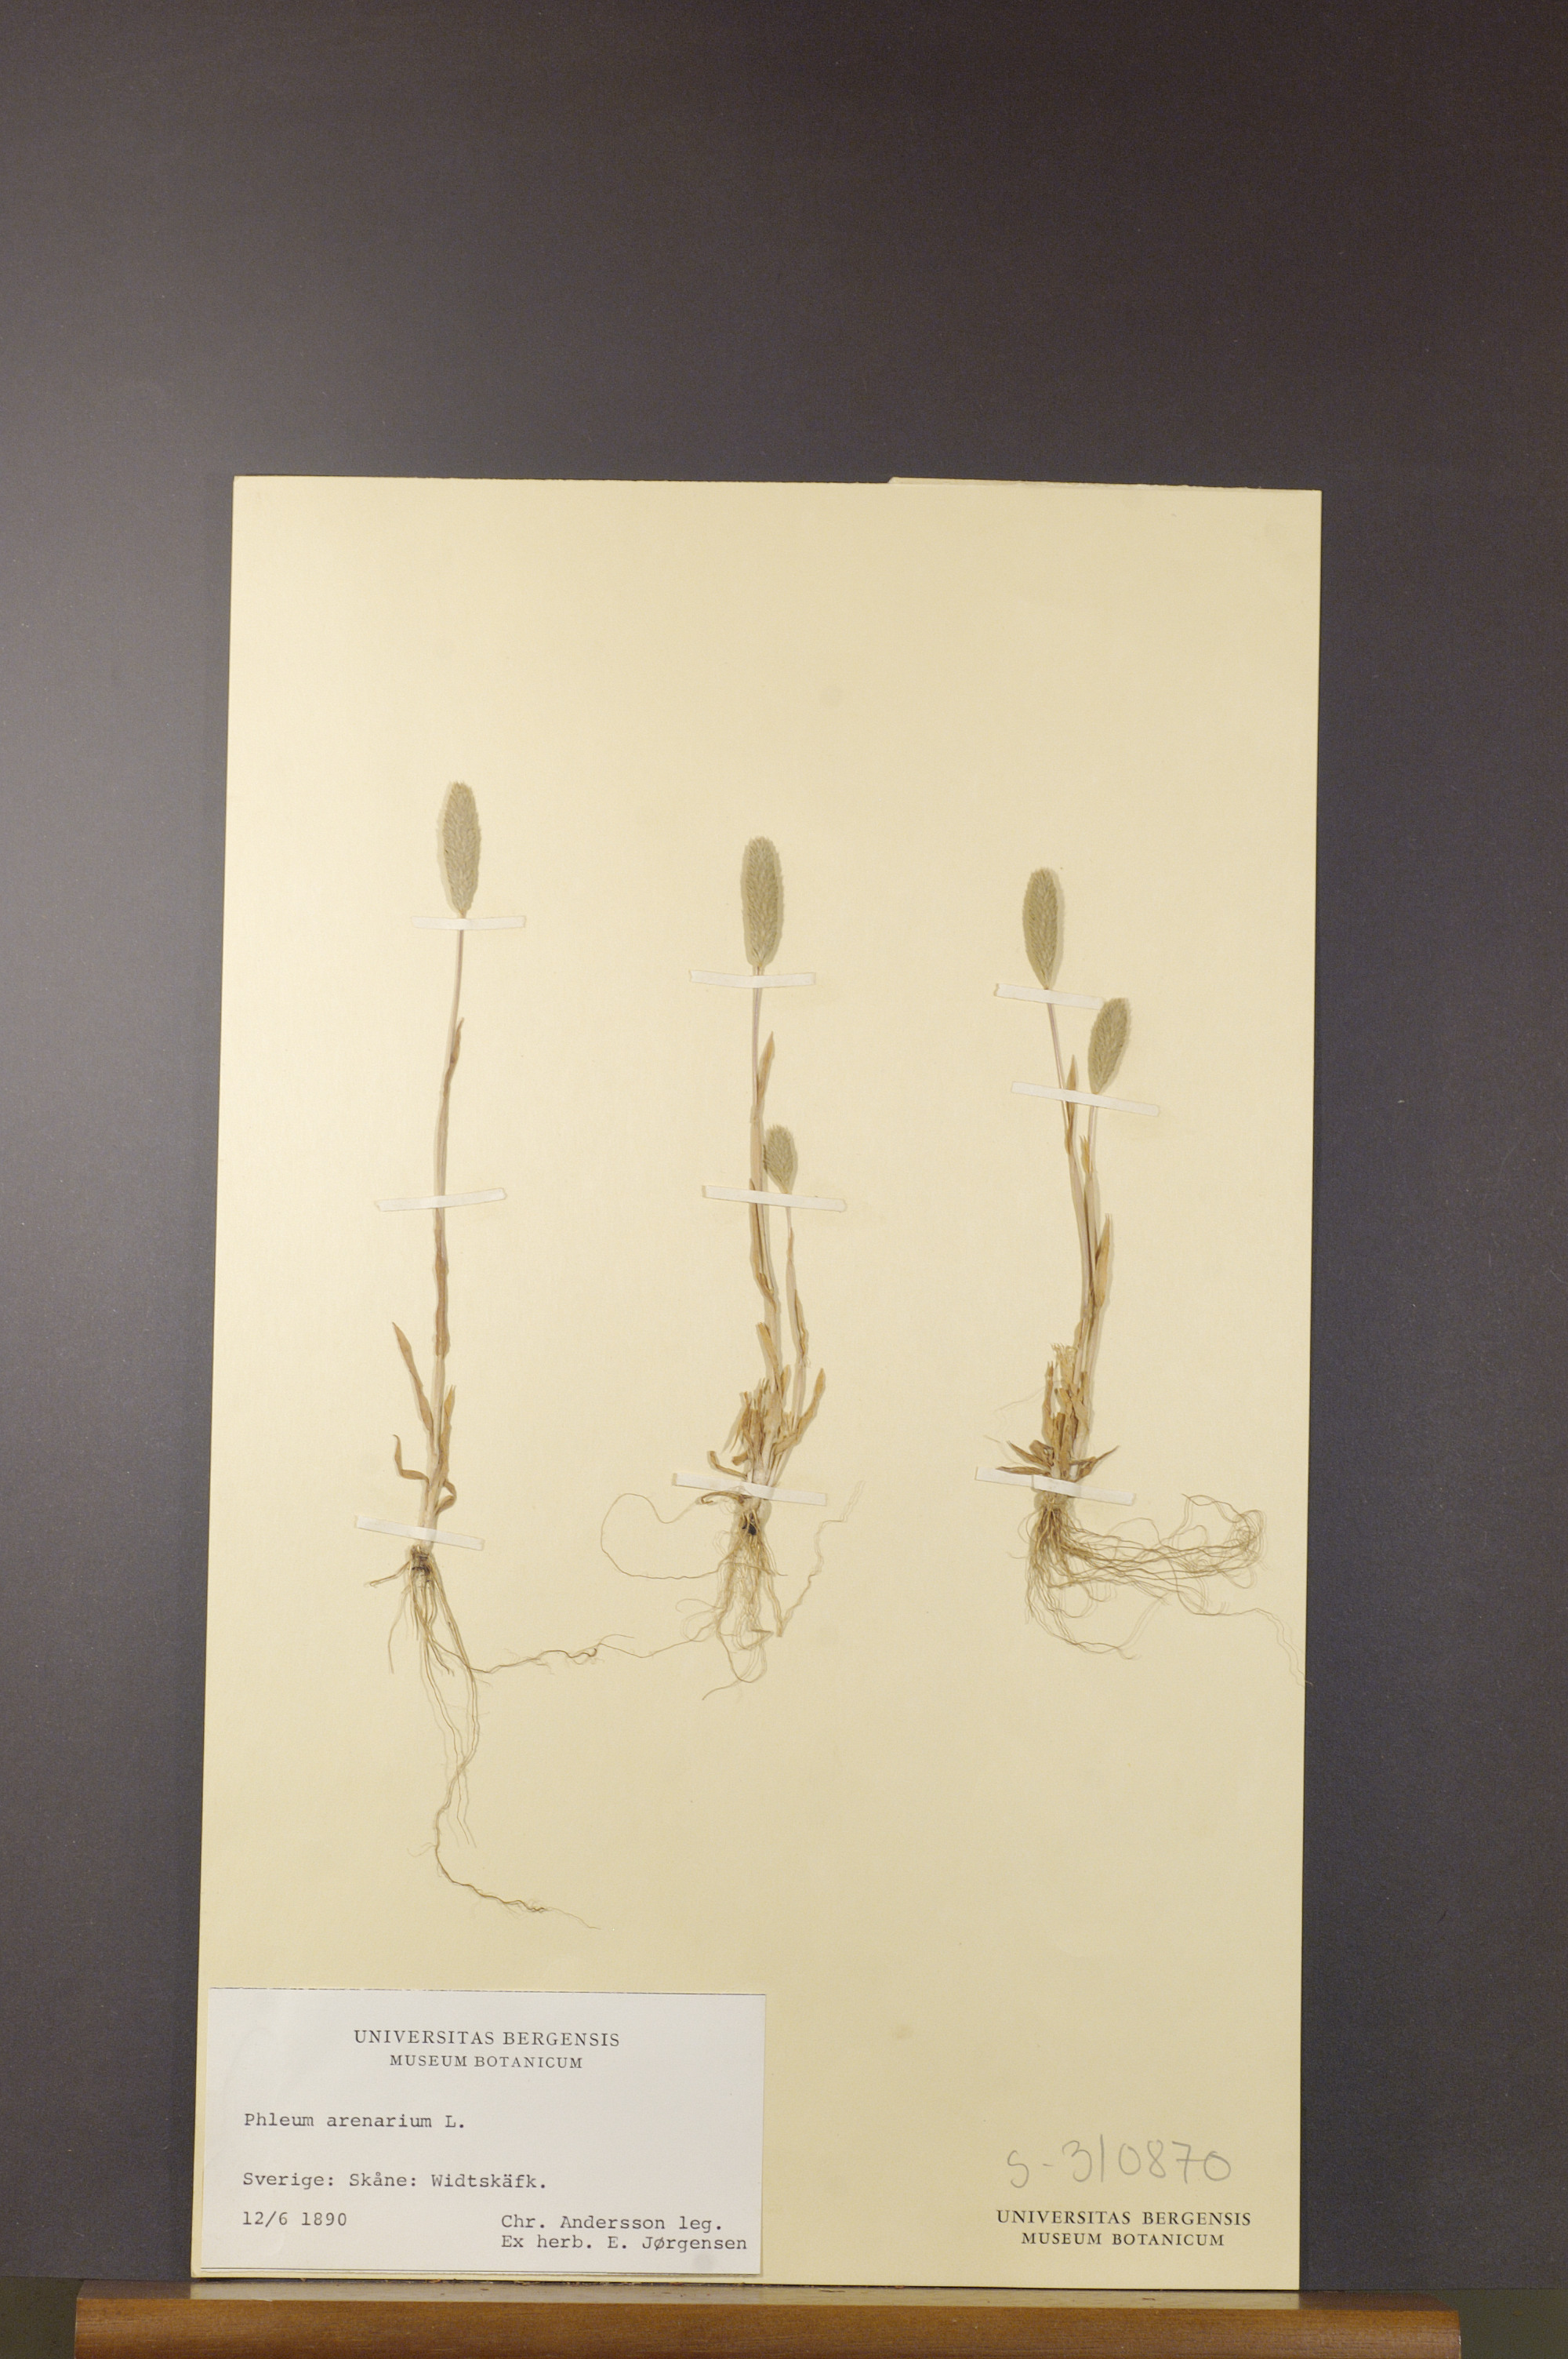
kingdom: Plantae
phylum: Tracheophyta
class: Liliopsida
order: Poales
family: Poaceae
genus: Phleum
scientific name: Phleum arenarium
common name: Sand cat's-tail
